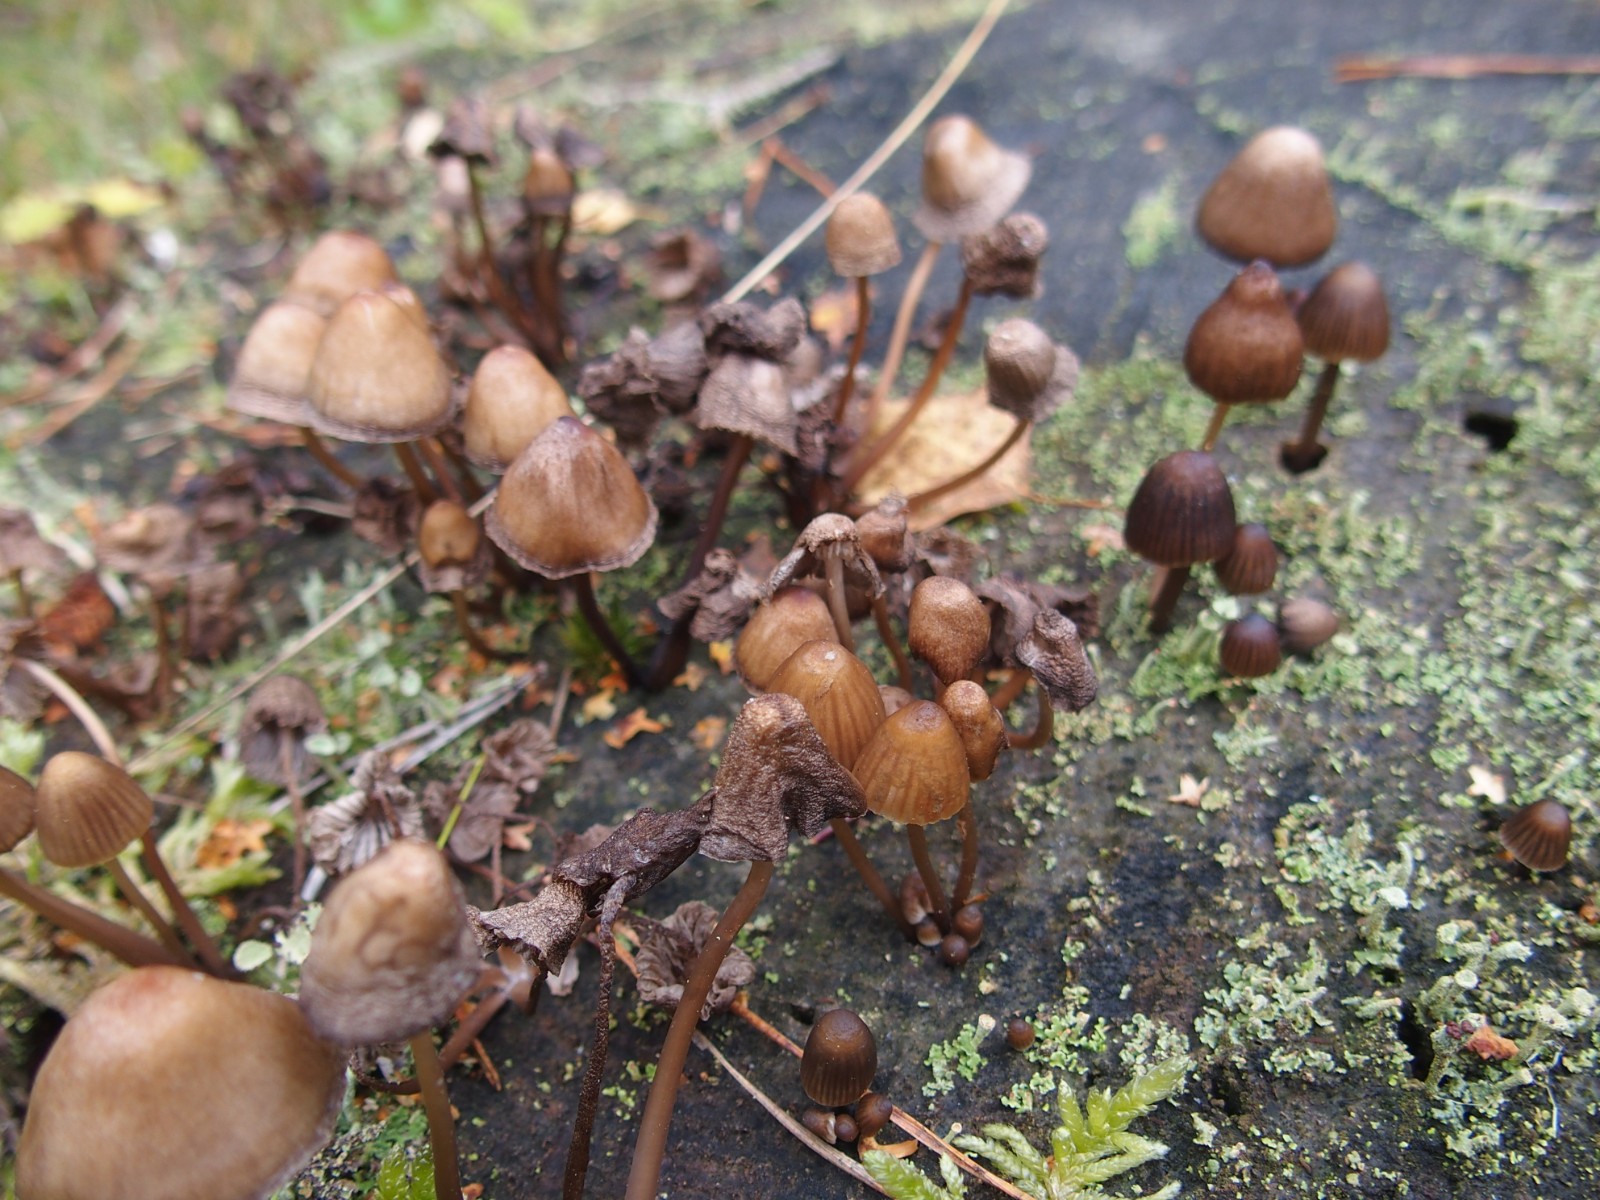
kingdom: Fungi
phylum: Basidiomycota
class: Agaricomycetes
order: Agaricales
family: Mycenaceae
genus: Mycena
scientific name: Mycena stipata
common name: stinkende huesvamp
